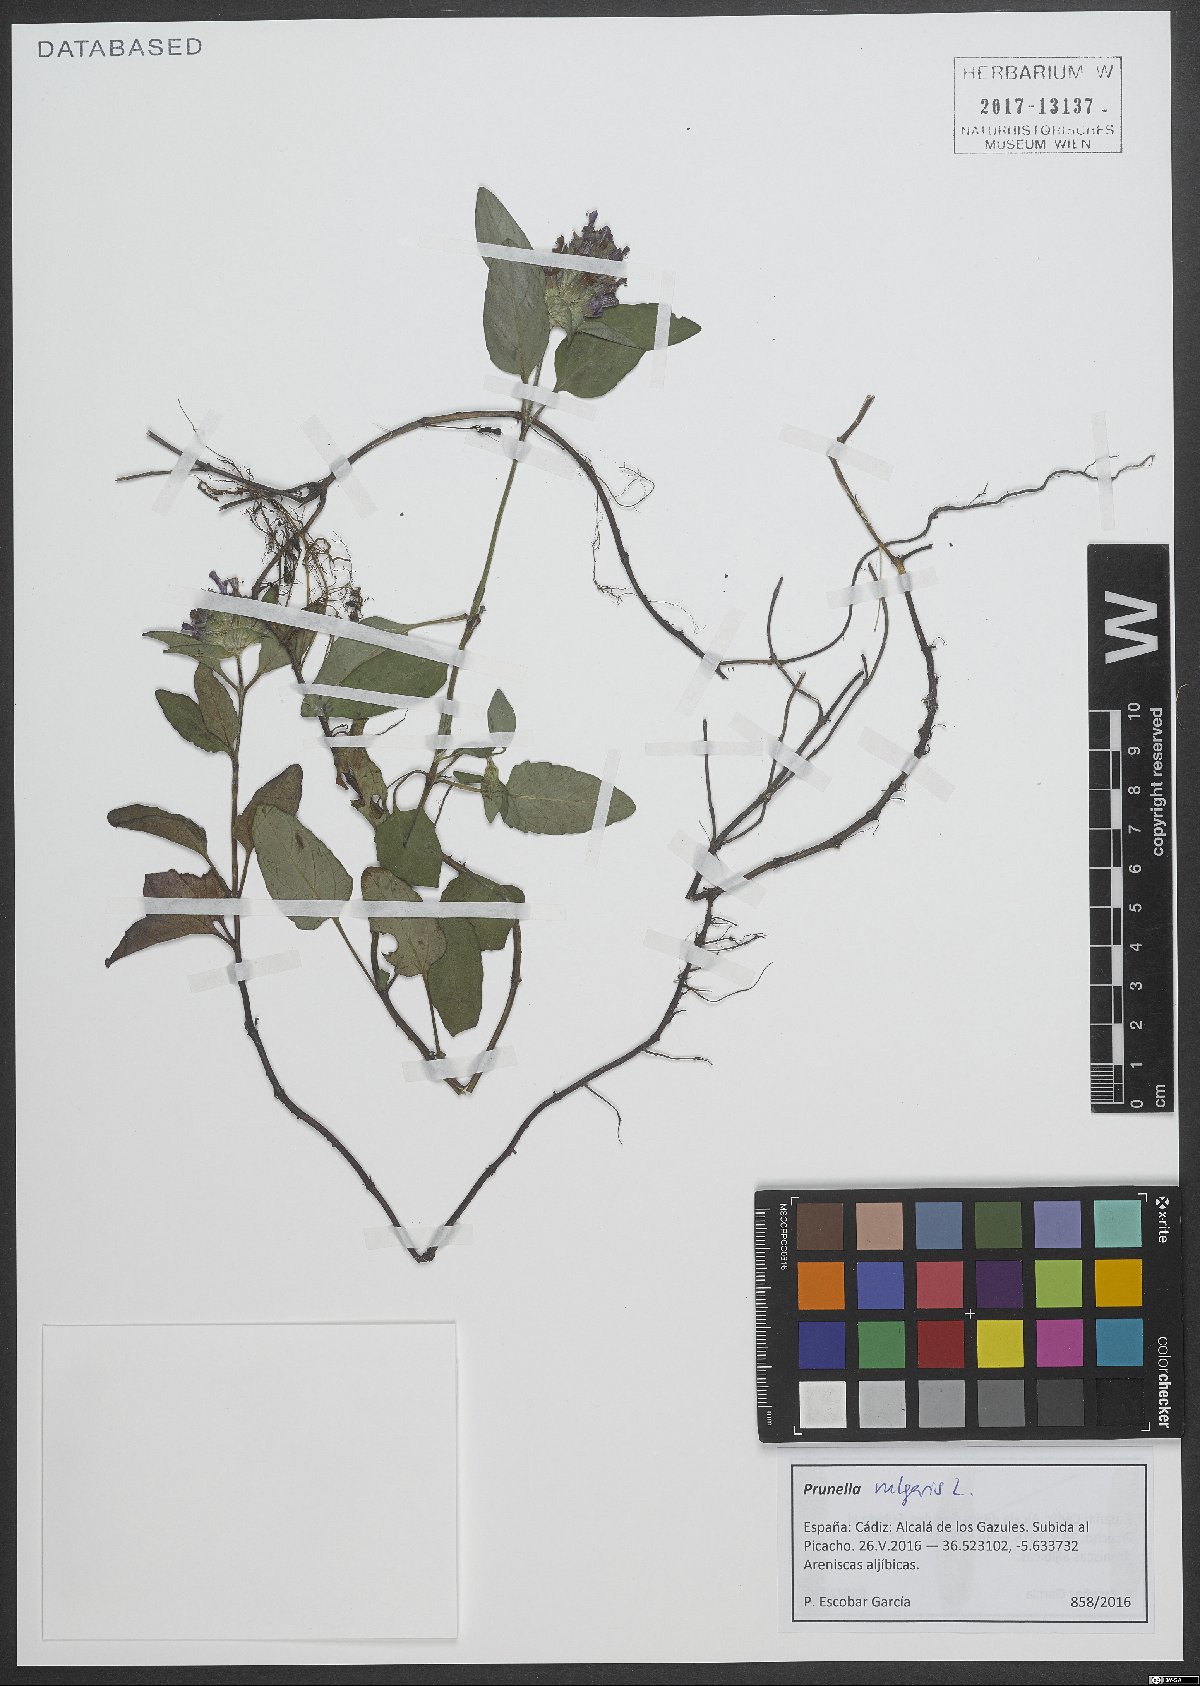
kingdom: Plantae
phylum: Tracheophyta
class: Magnoliopsida
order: Lamiales
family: Lamiaceae
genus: Prunella
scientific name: Prunella vulgaris
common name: Heal-all
